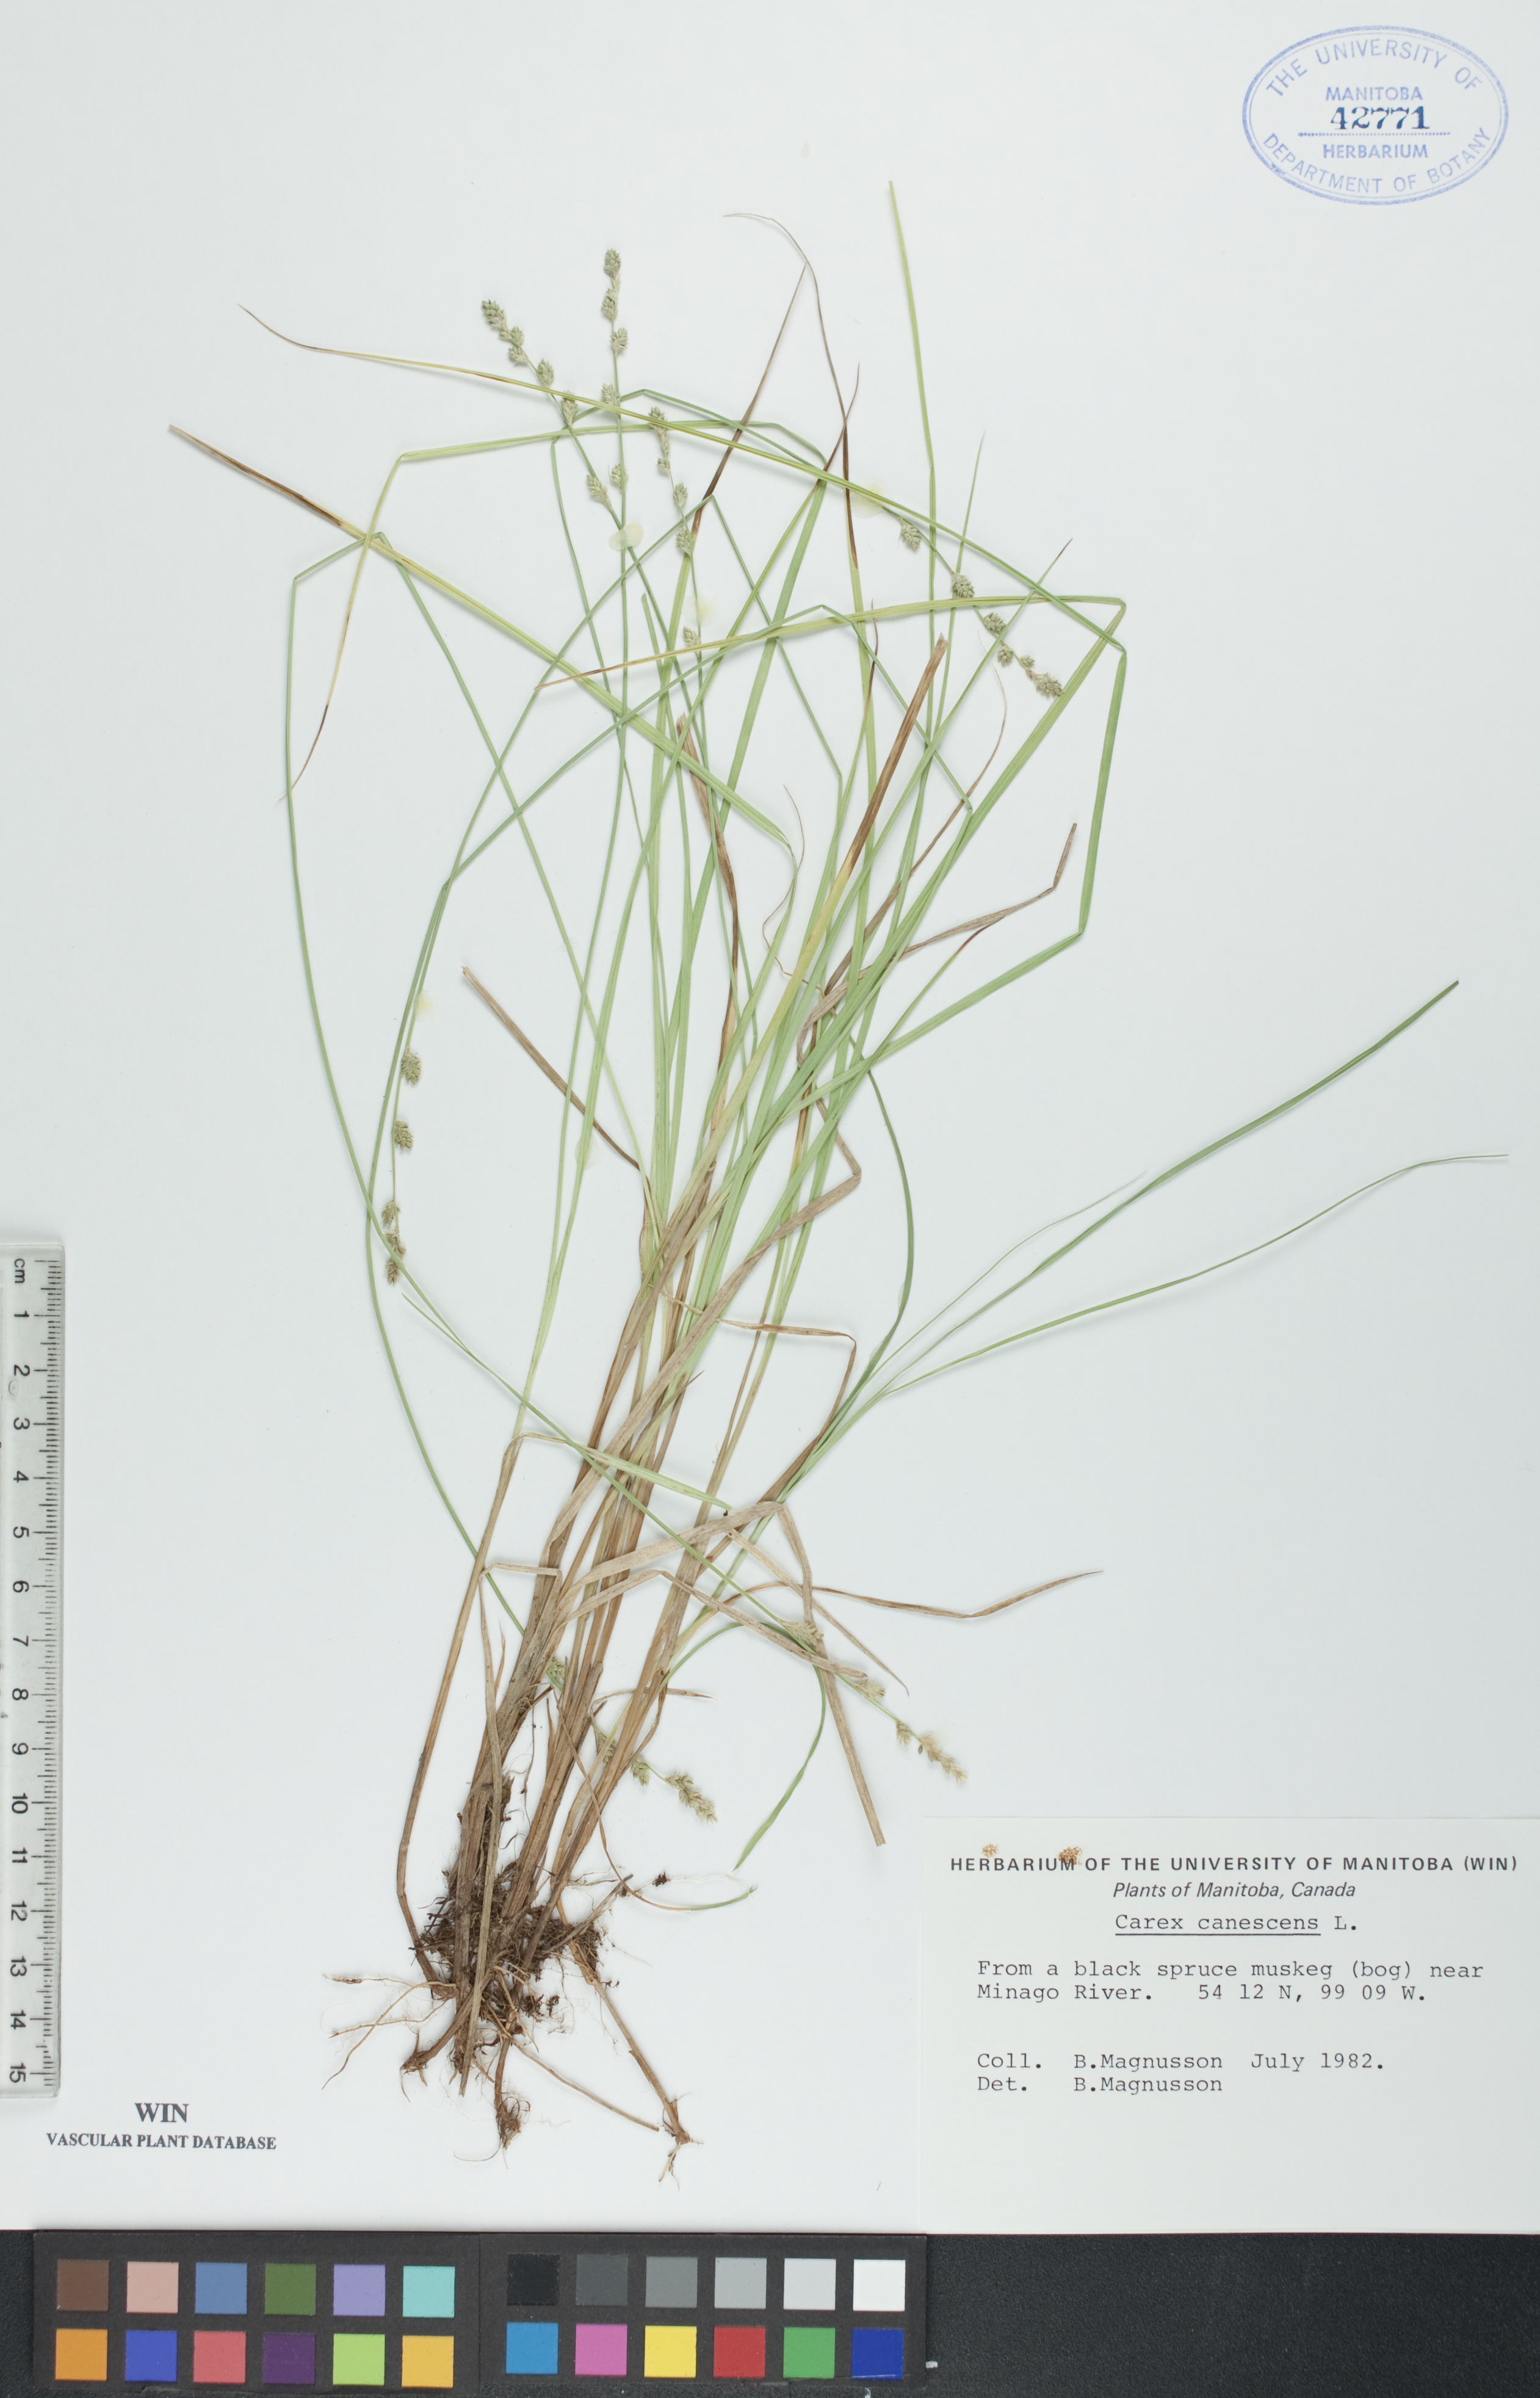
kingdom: Plantae
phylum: Tracheophyta
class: Liliopsida
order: Poales
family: Cyperaceae
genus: Carex
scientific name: Carex canescens
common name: White sedge
